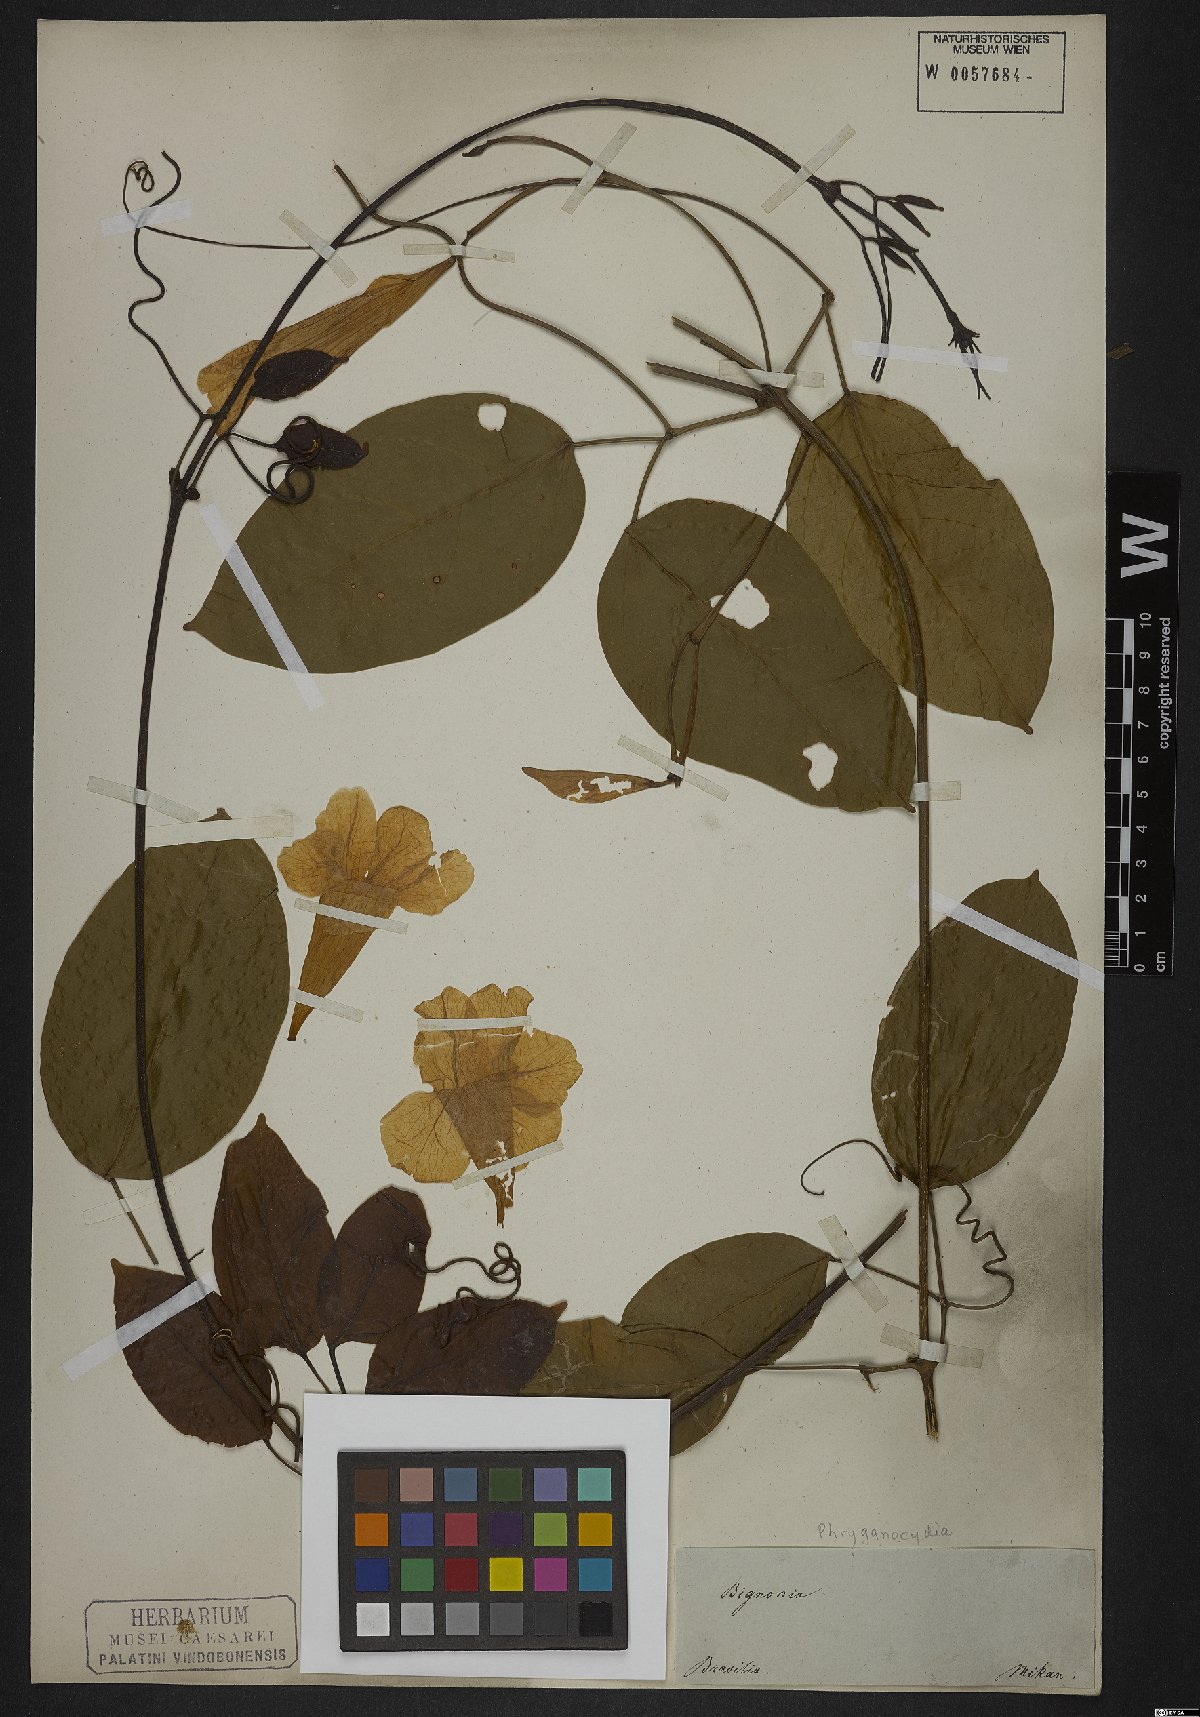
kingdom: Plantae
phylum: Tracheophyta
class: Magnoliopsida
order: Lamiales
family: Bignoniaceae
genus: Phryganocydia
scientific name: Phryganocydia
